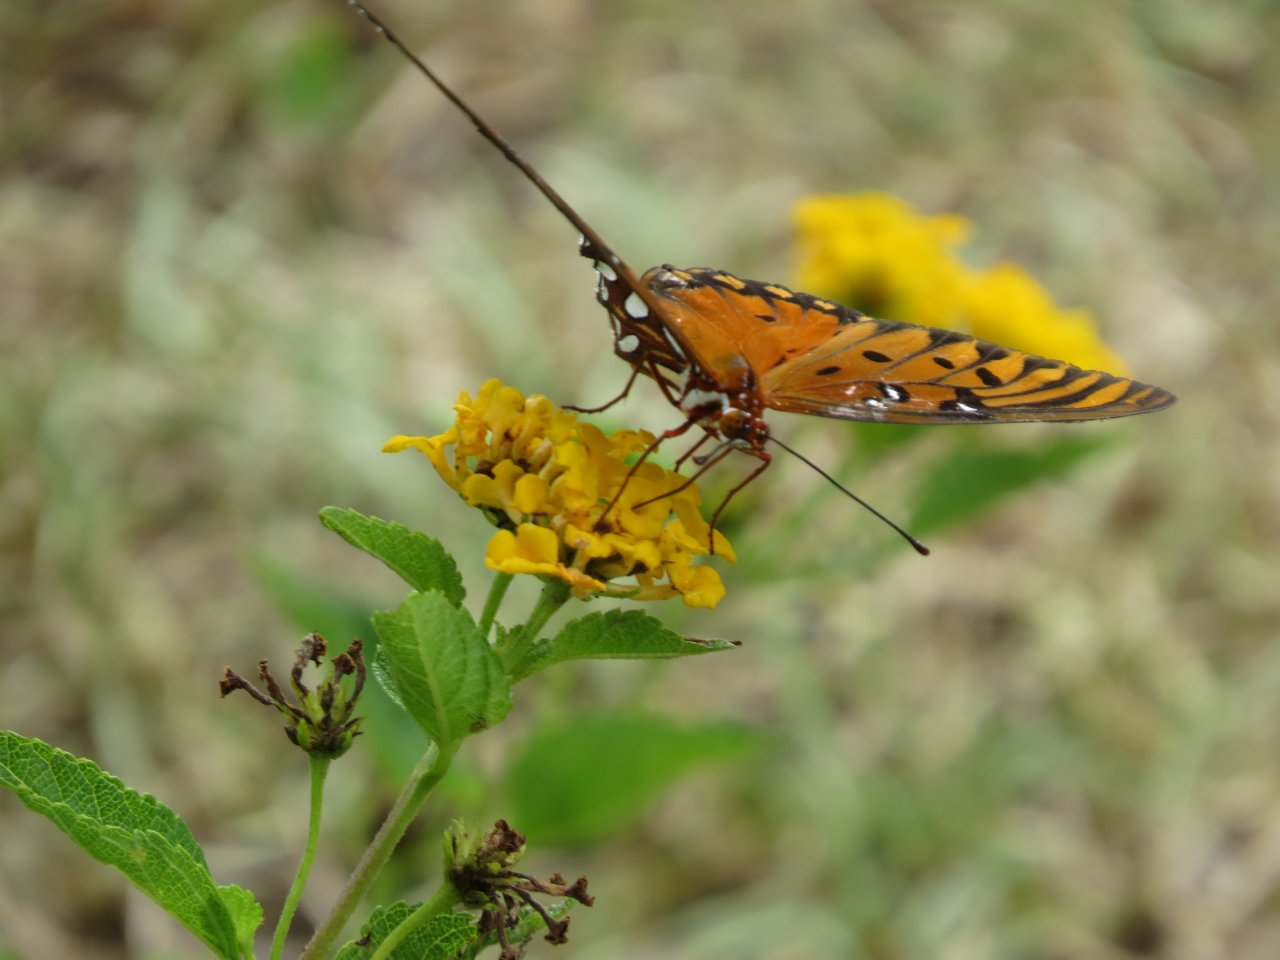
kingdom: Animalia
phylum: Arthropoda
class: Insecta
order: Lepidoptera
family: Nymphalidae
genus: Dione
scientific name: Dione vanillae
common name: Gulf Fritillary
